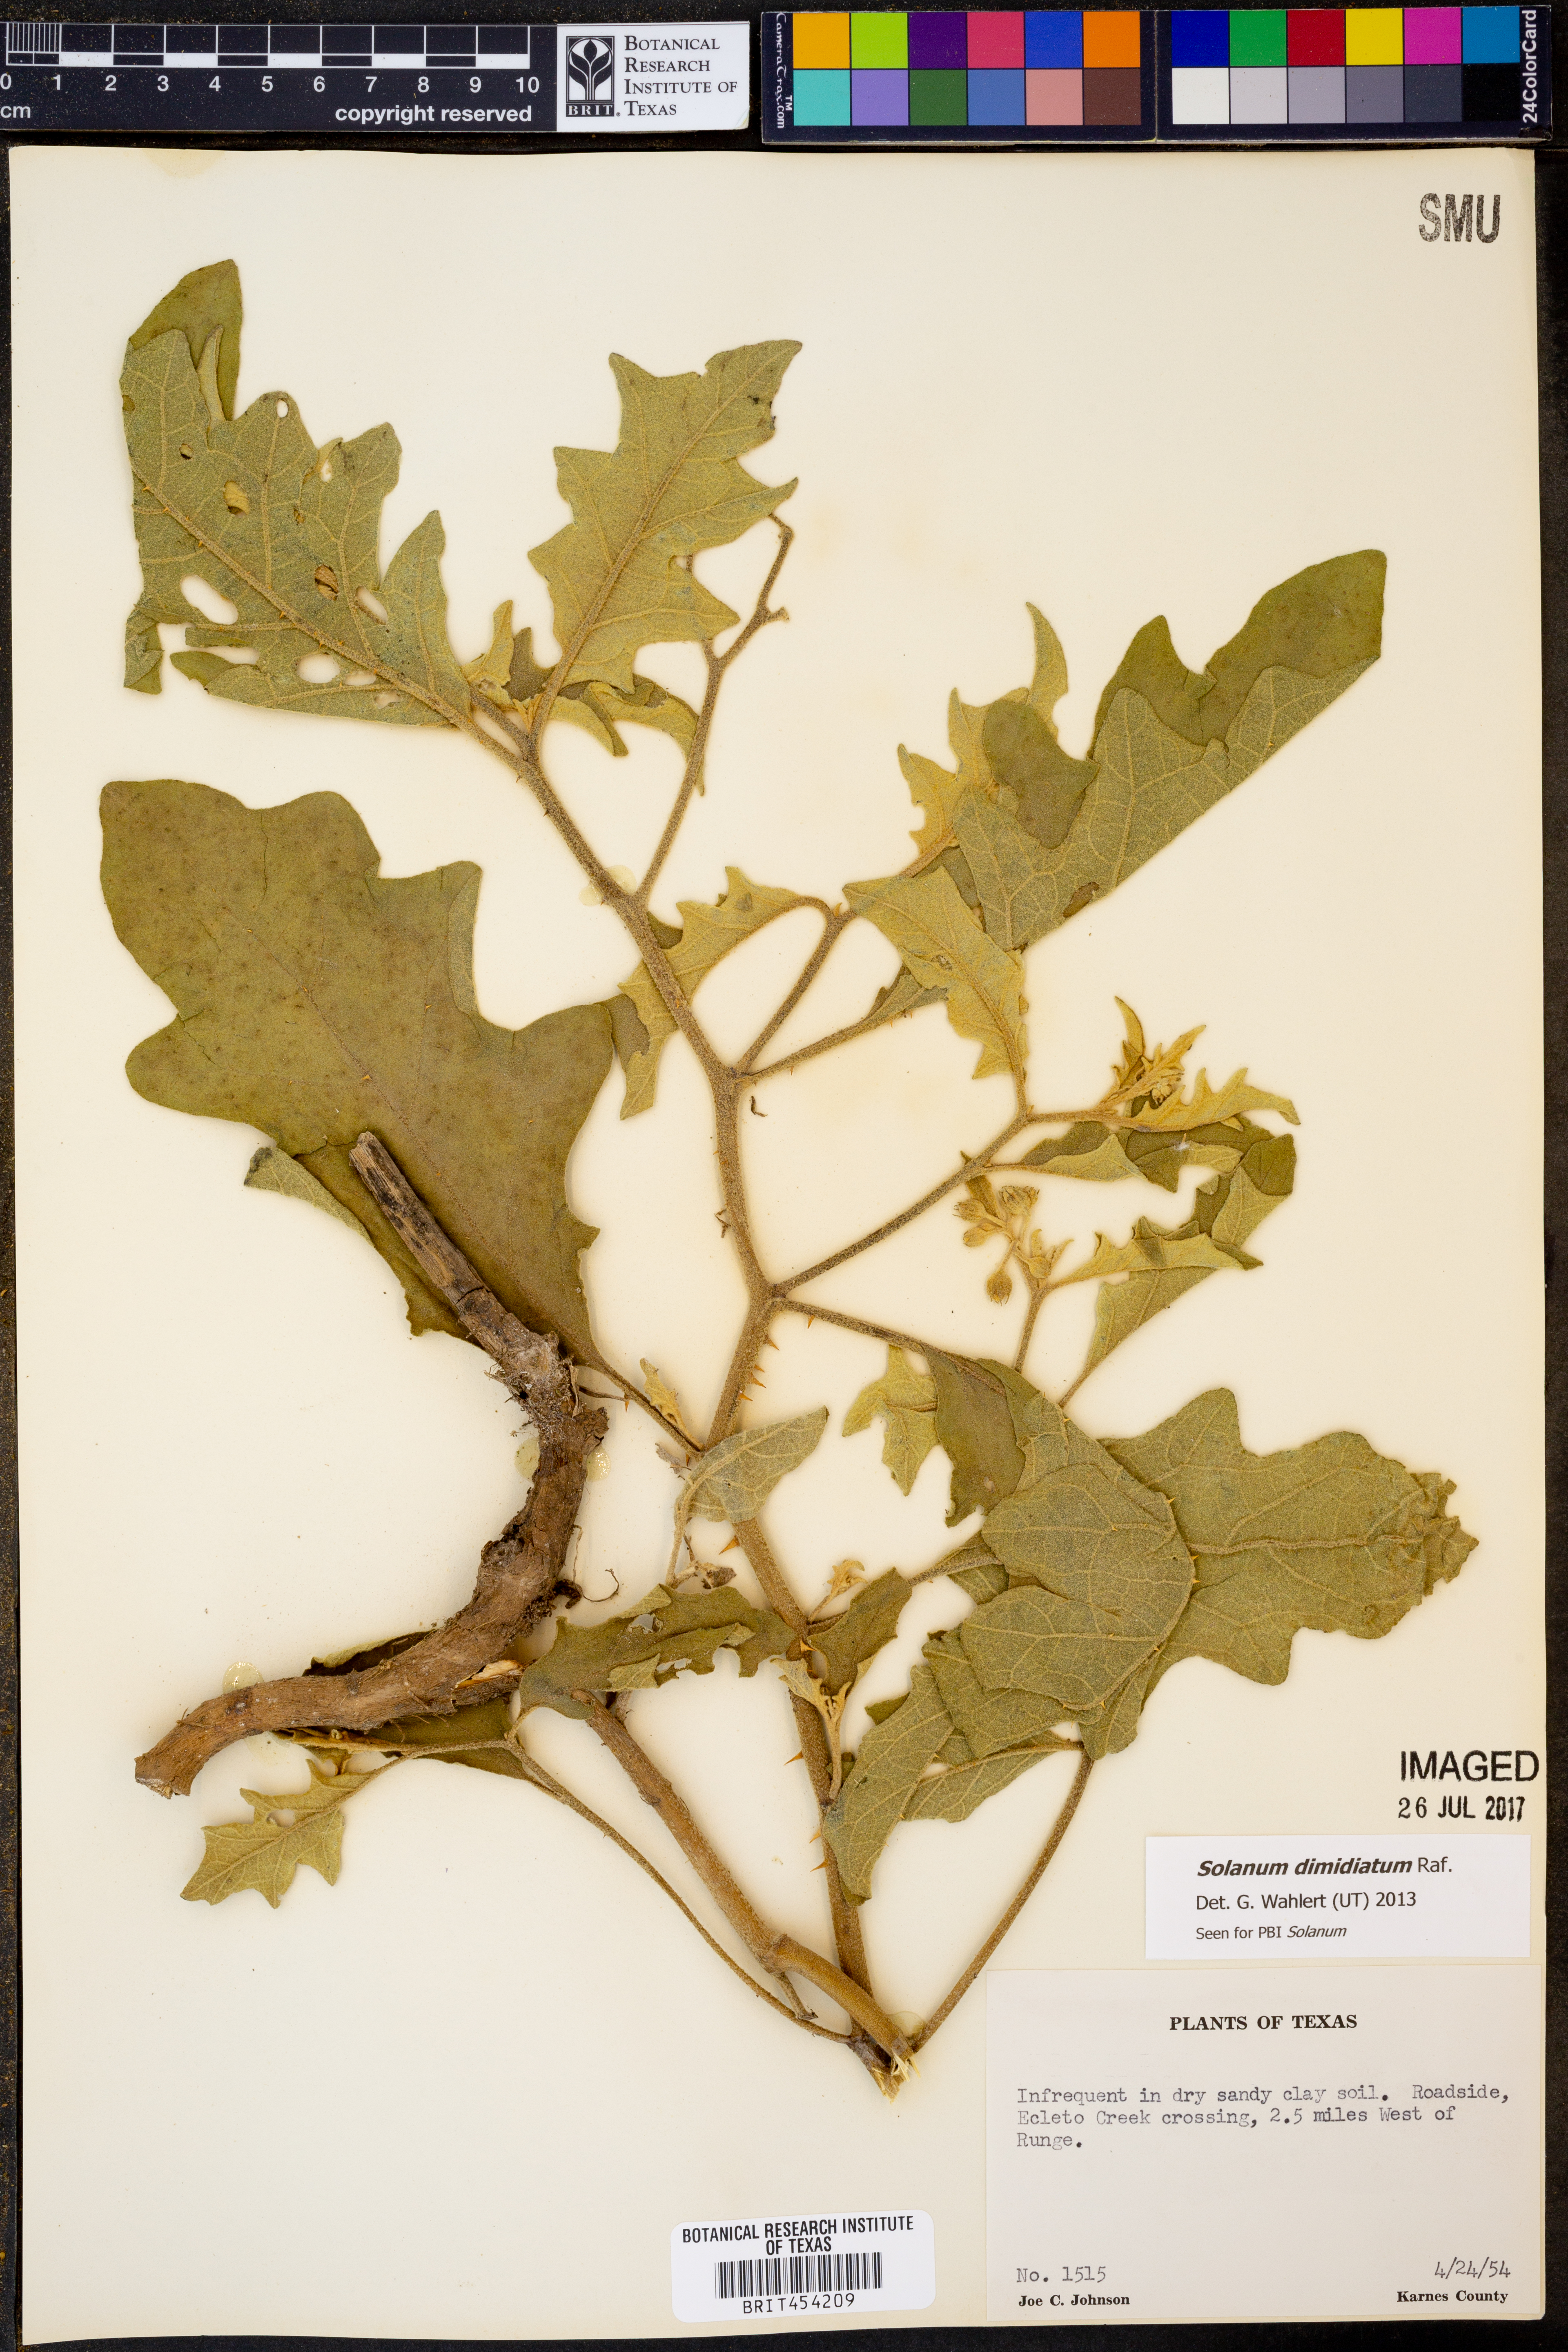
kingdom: Plantae
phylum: Tracheophyta
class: Magnoliopsida
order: Solanales
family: Solanaceae
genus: Solanum
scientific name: Solanum dimidiatum
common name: Carolina horse-nettle
